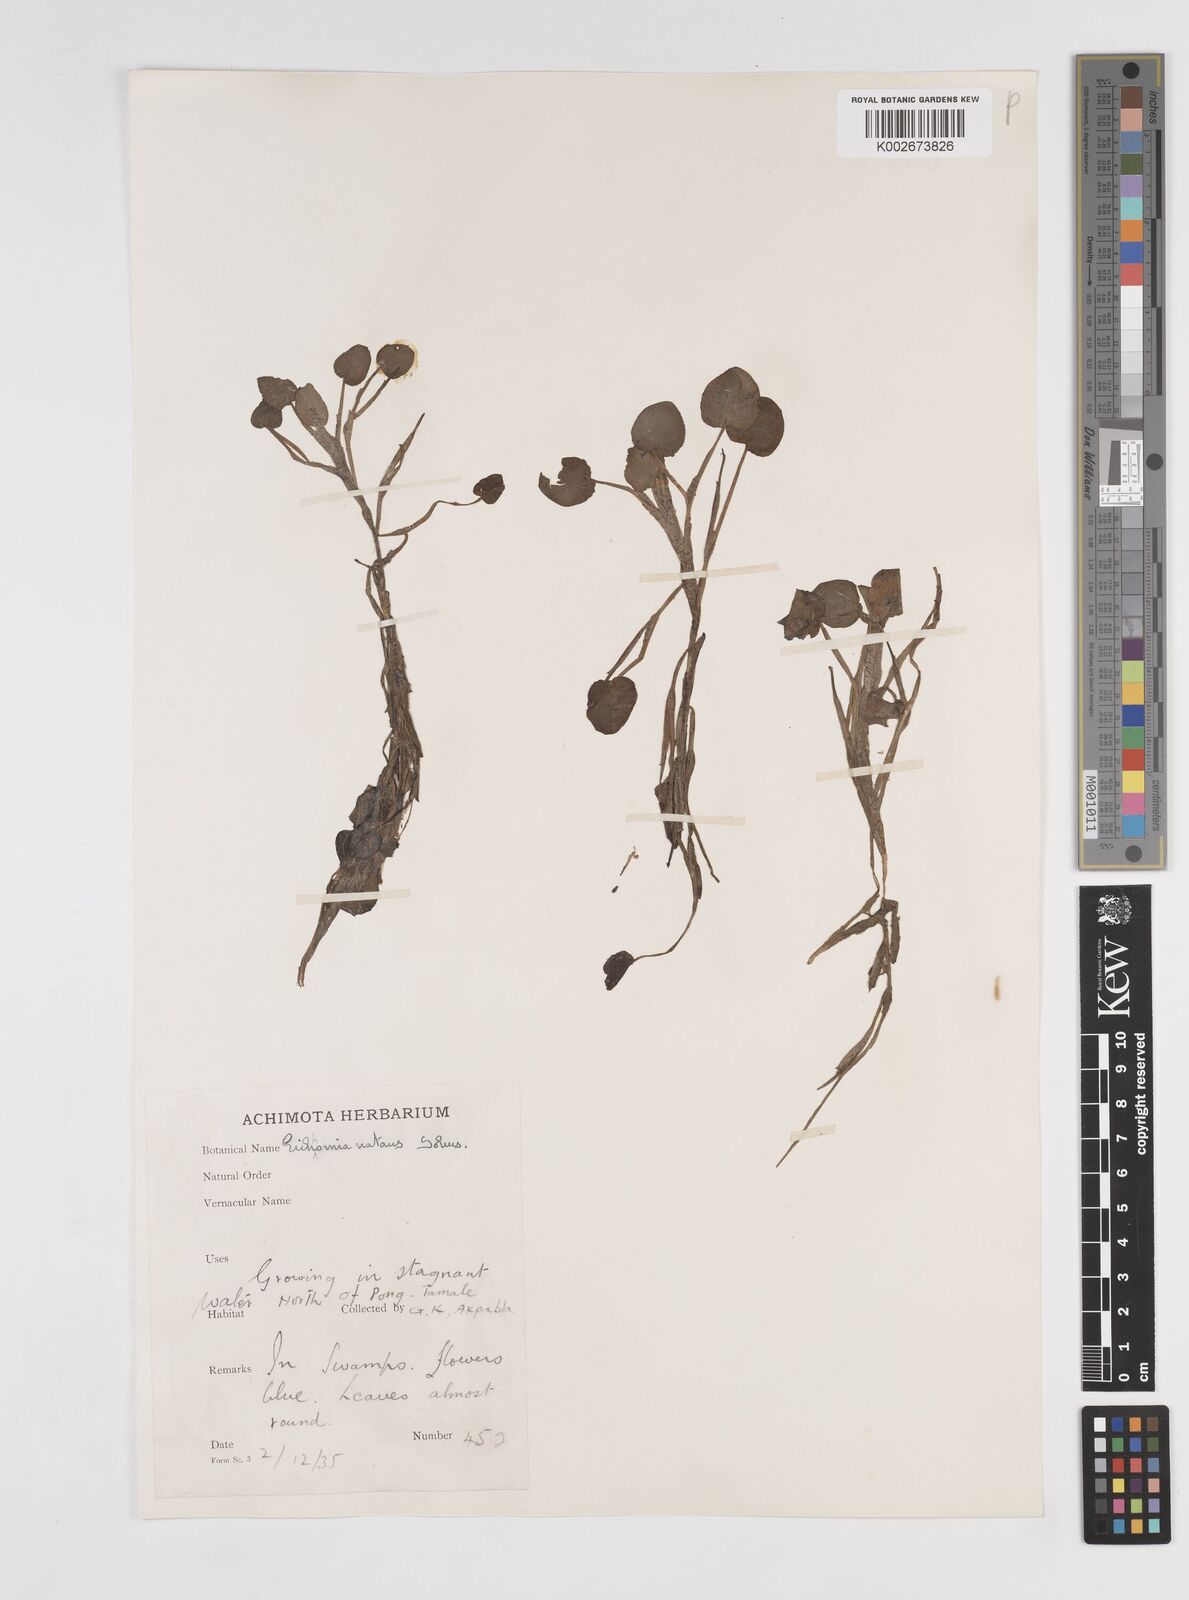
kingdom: Plantae
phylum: Tracheophyta
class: Liliopsida
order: Commelinales
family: Pontederiaceae
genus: Pontederia
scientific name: Pontederia diversifolia
